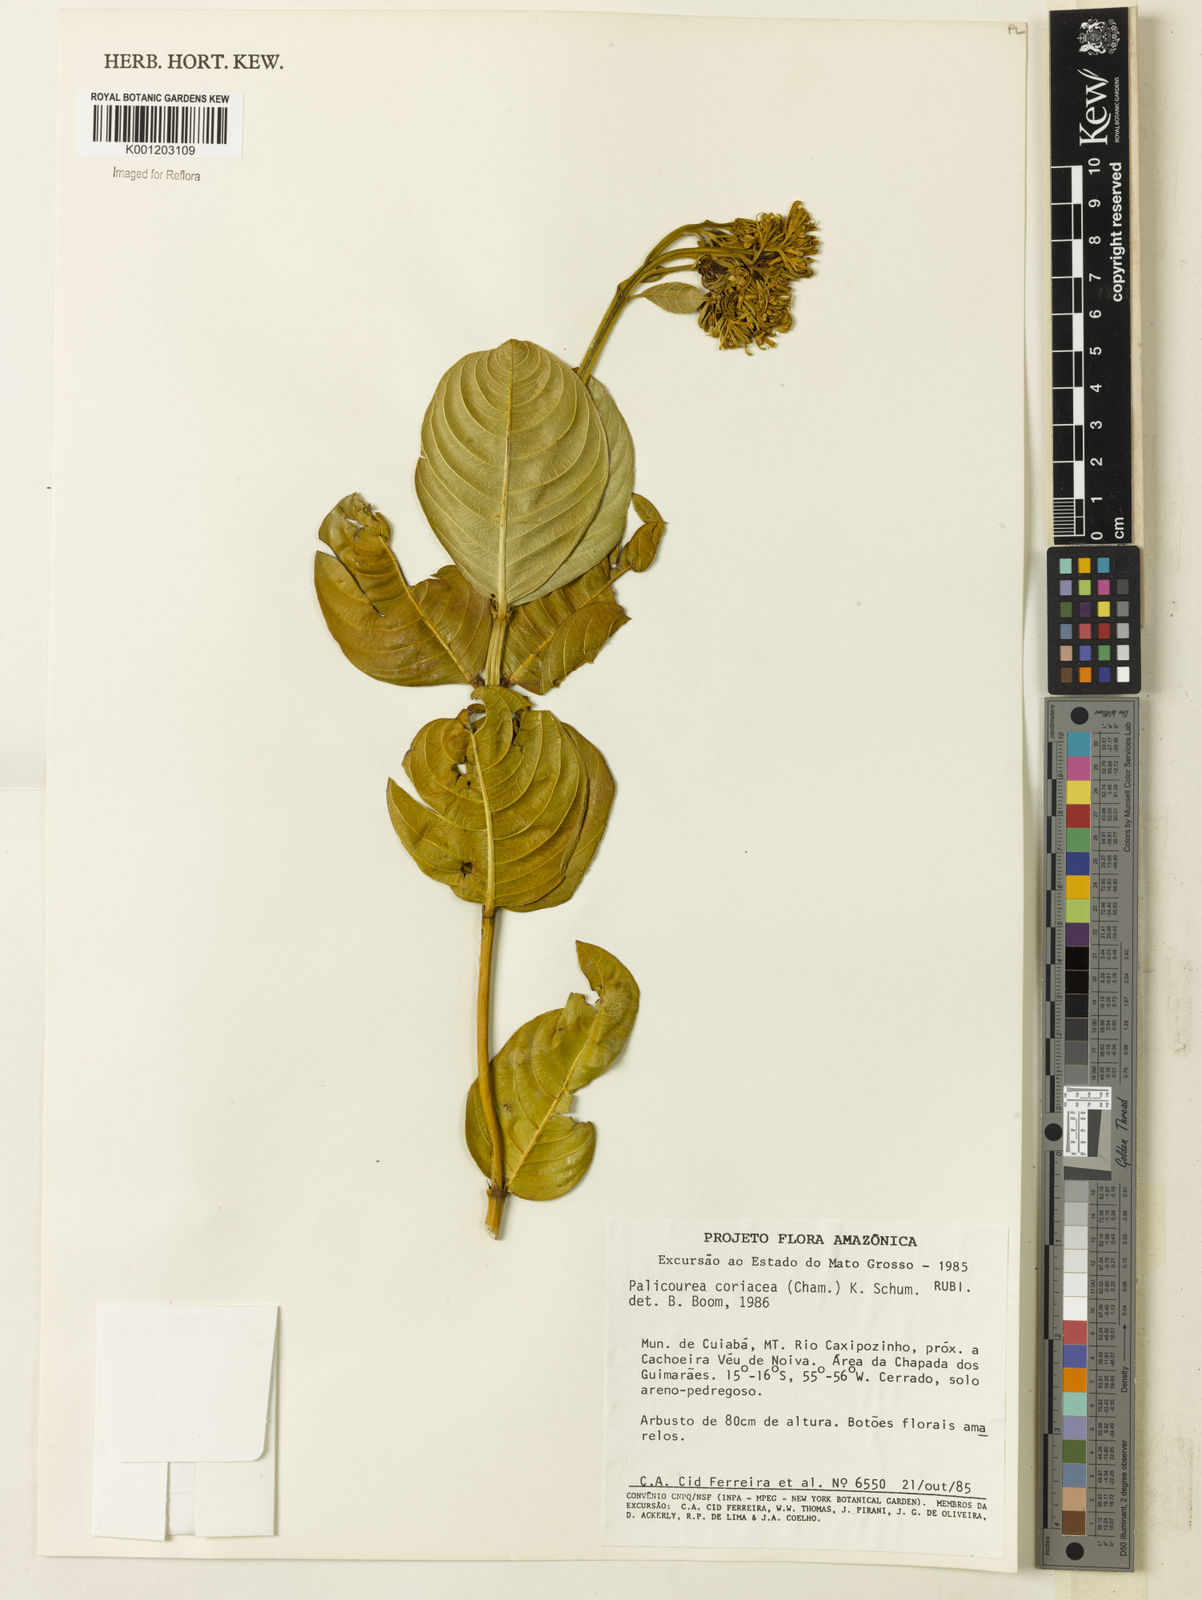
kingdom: Plantae
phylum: Tracheophyta
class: Magnoliopsida
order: Gentianales
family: Rubiaceae
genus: Palicourea
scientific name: Palicourea coriacea
